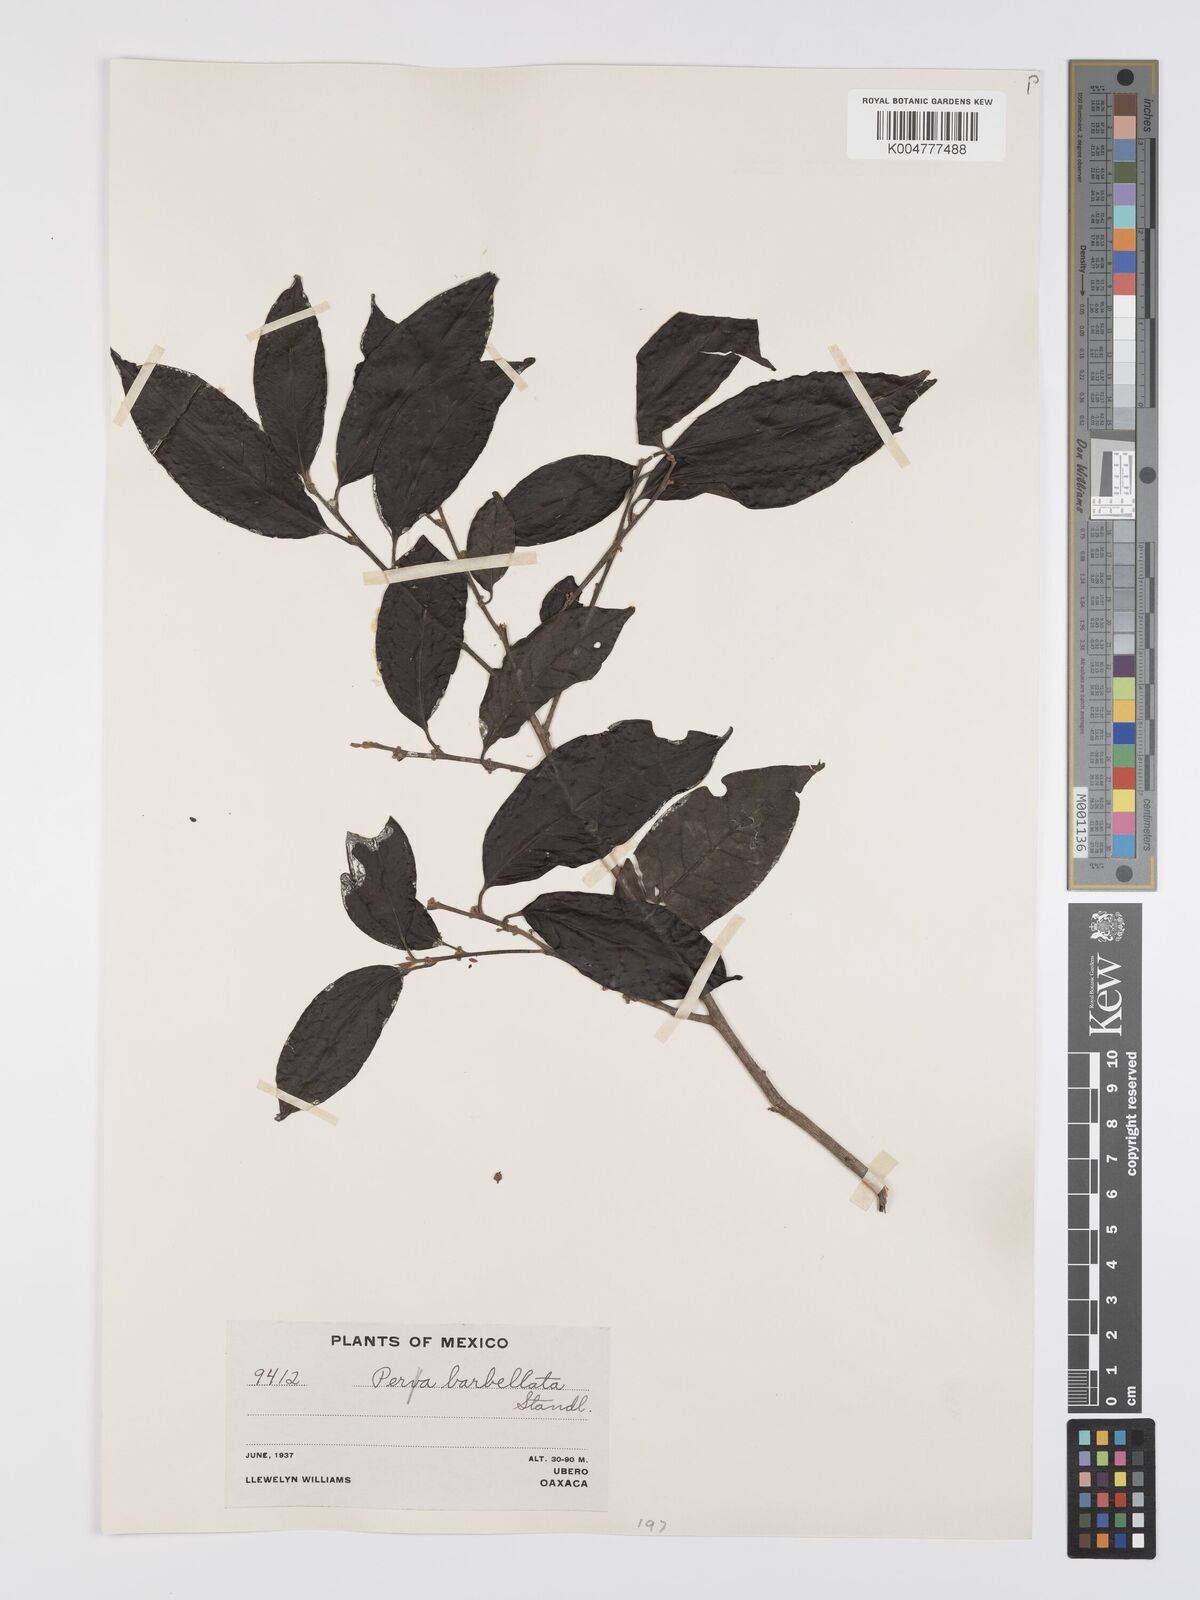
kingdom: Plantae
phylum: Tracheophyta
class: Magnoliopsida
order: Malpighiales
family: Peraceae
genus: Pera
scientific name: Pera barbellata
